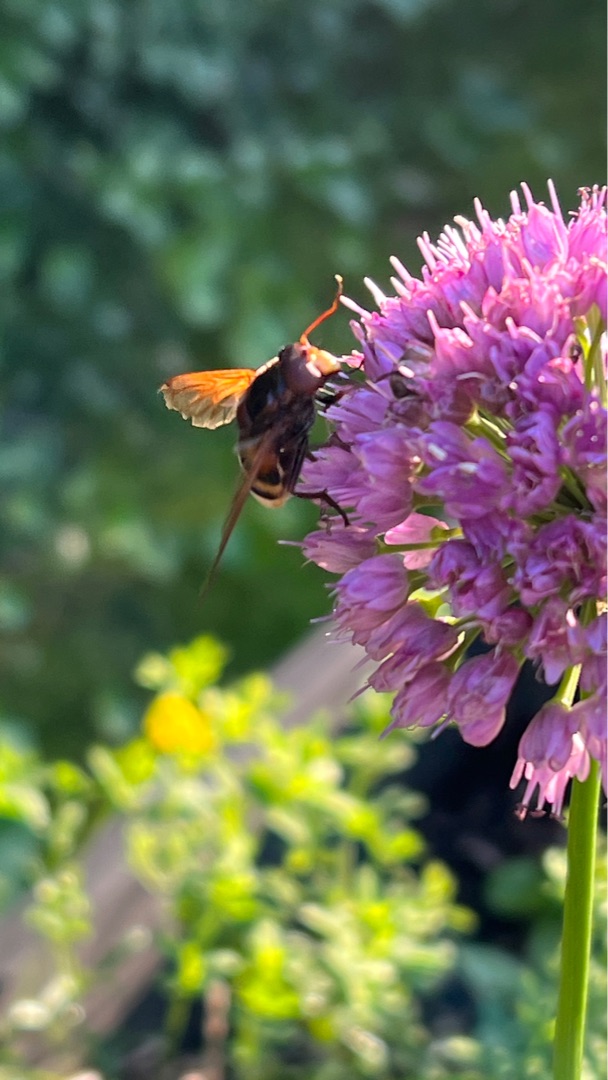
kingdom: Animalia
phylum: Arthropoda
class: Insecta
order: Diptera
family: Syrphidae
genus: Volucella
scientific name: Volucella zonaria
